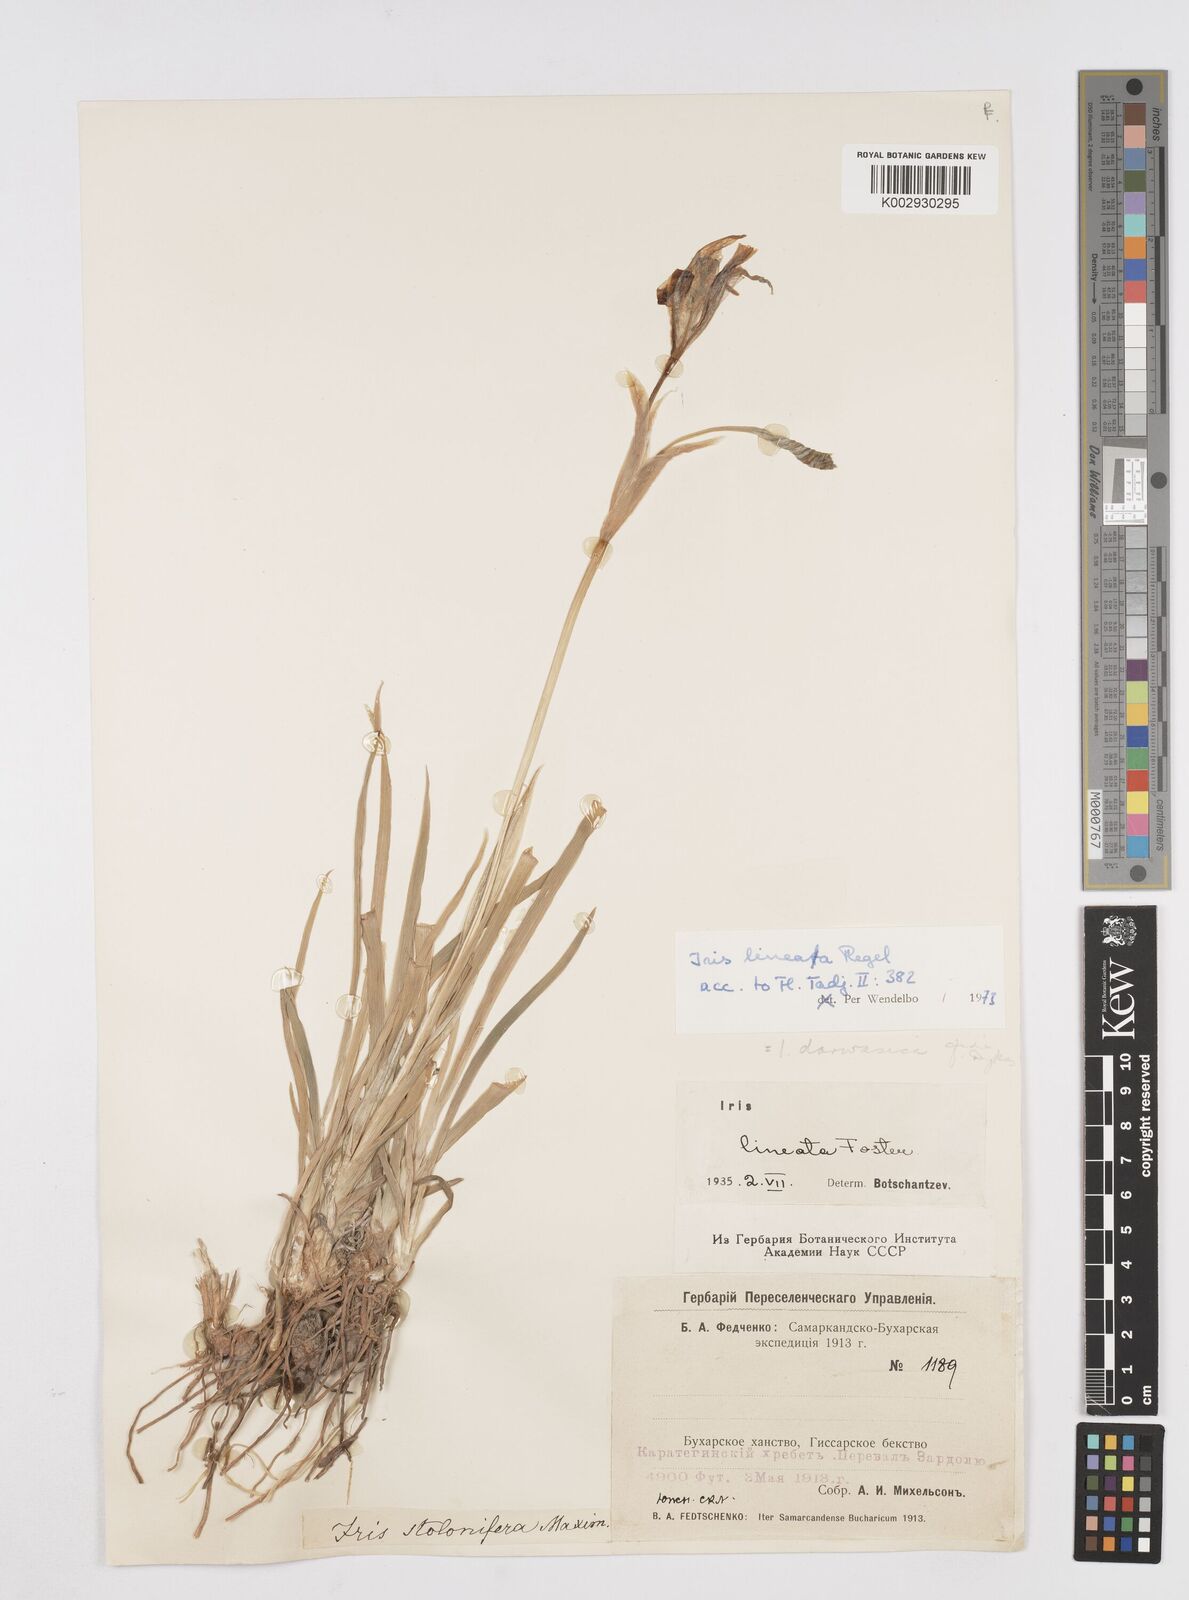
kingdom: Plantae
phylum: Tracheophyta
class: Liliopsida
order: Asparagales
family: Iridaceae
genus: Iris
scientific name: Iris darwasica
